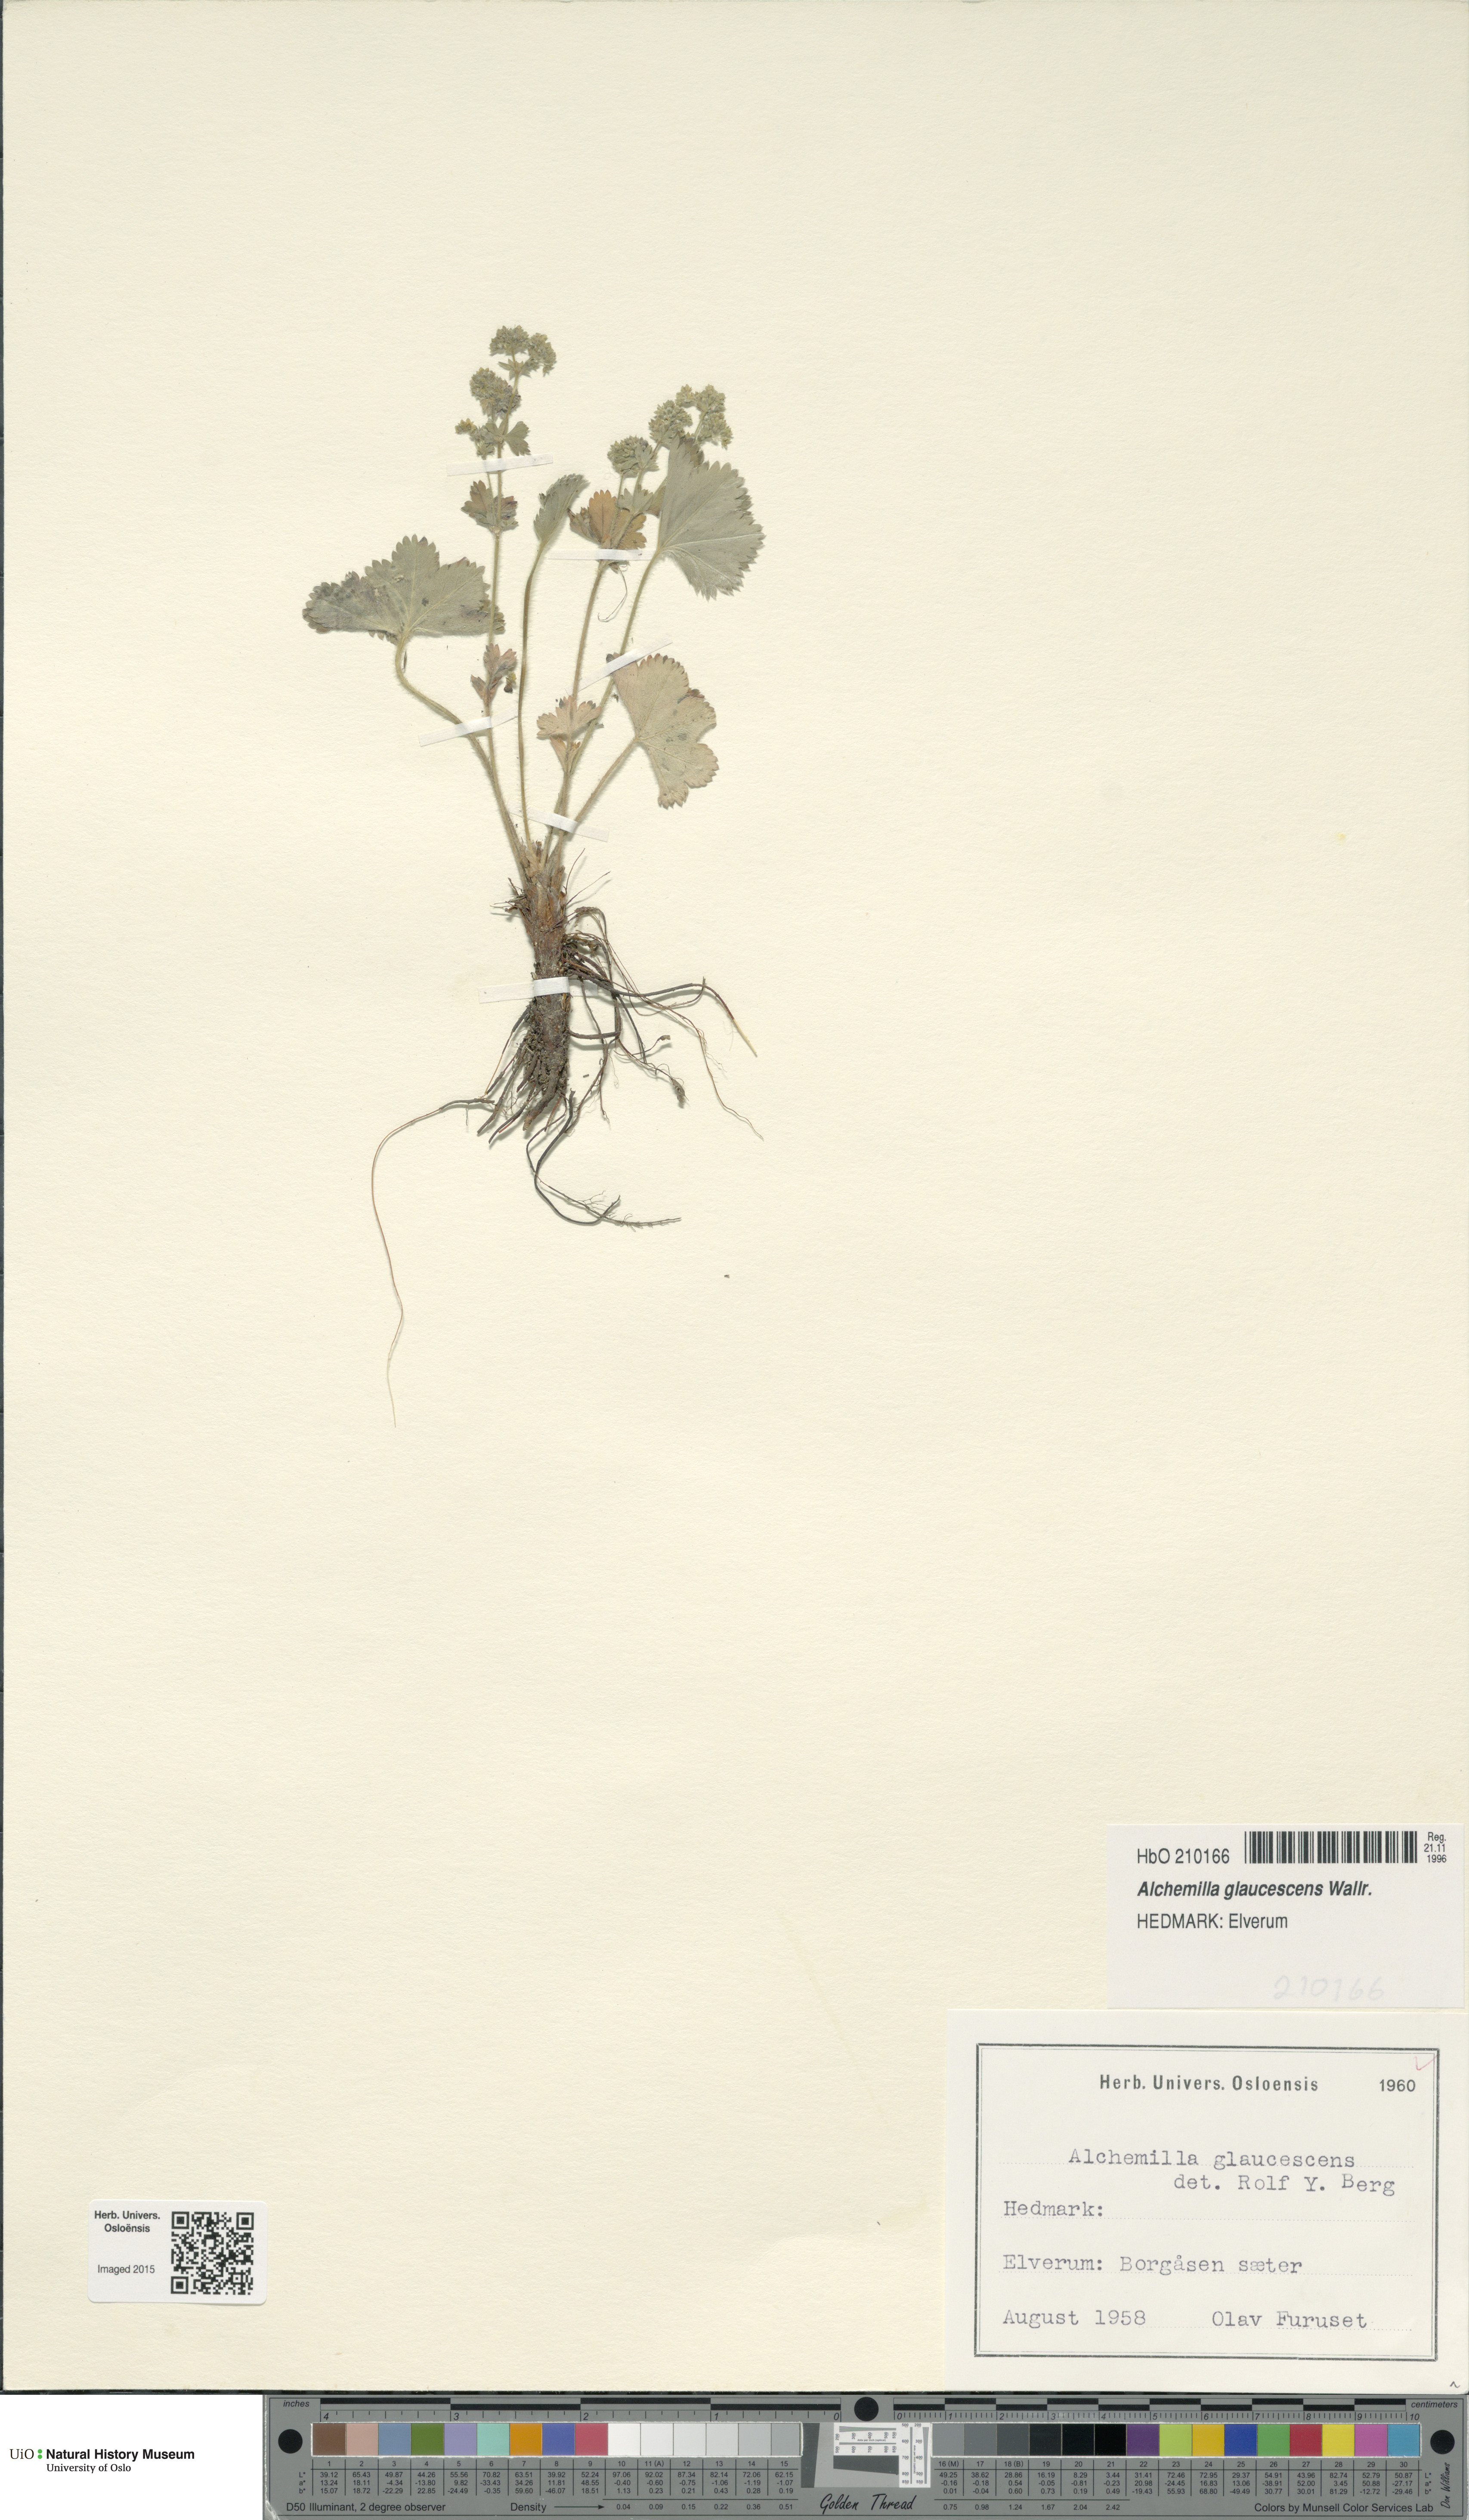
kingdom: Plantae
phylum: Tracheophyta
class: Magnoliopsida
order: Rosales
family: Rosaceae
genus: Alchemilla
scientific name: Alchemilla glaucescens
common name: Silky lady's mantle
